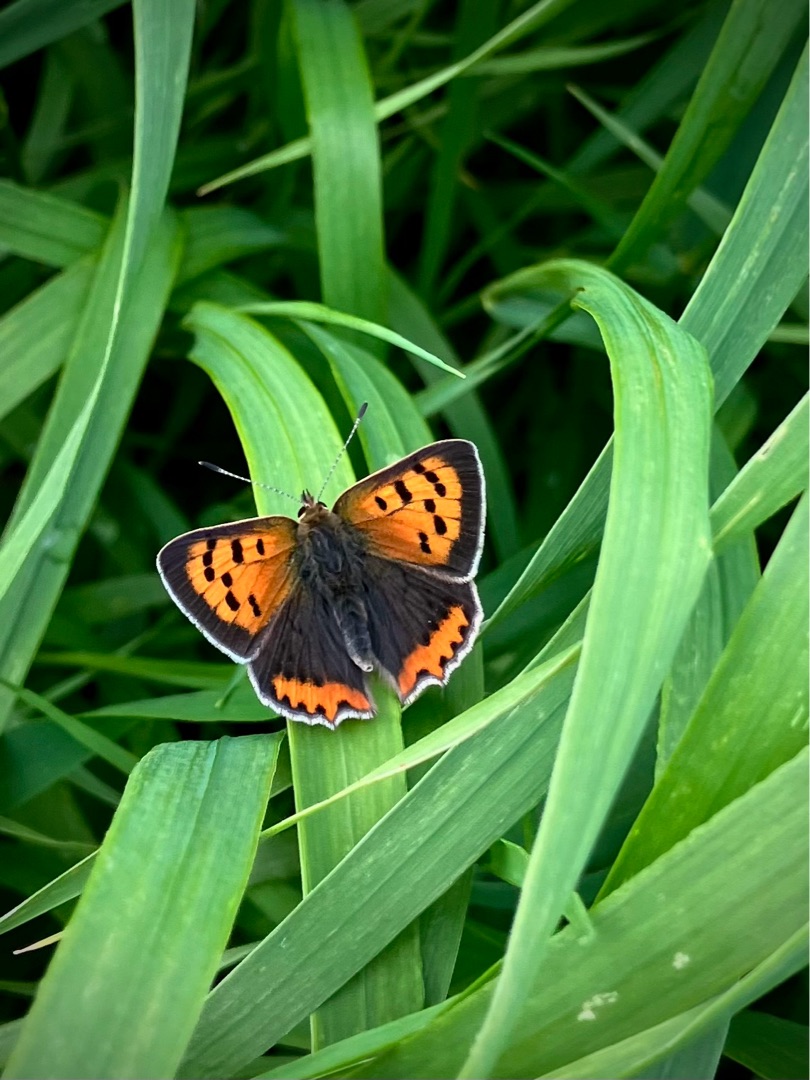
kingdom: Animalia
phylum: Arthropoda
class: Insecta
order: Lepidoptera
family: Lycaenidae
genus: Lycaena
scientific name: Lycaena phlaeas
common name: Lille ildfugl
